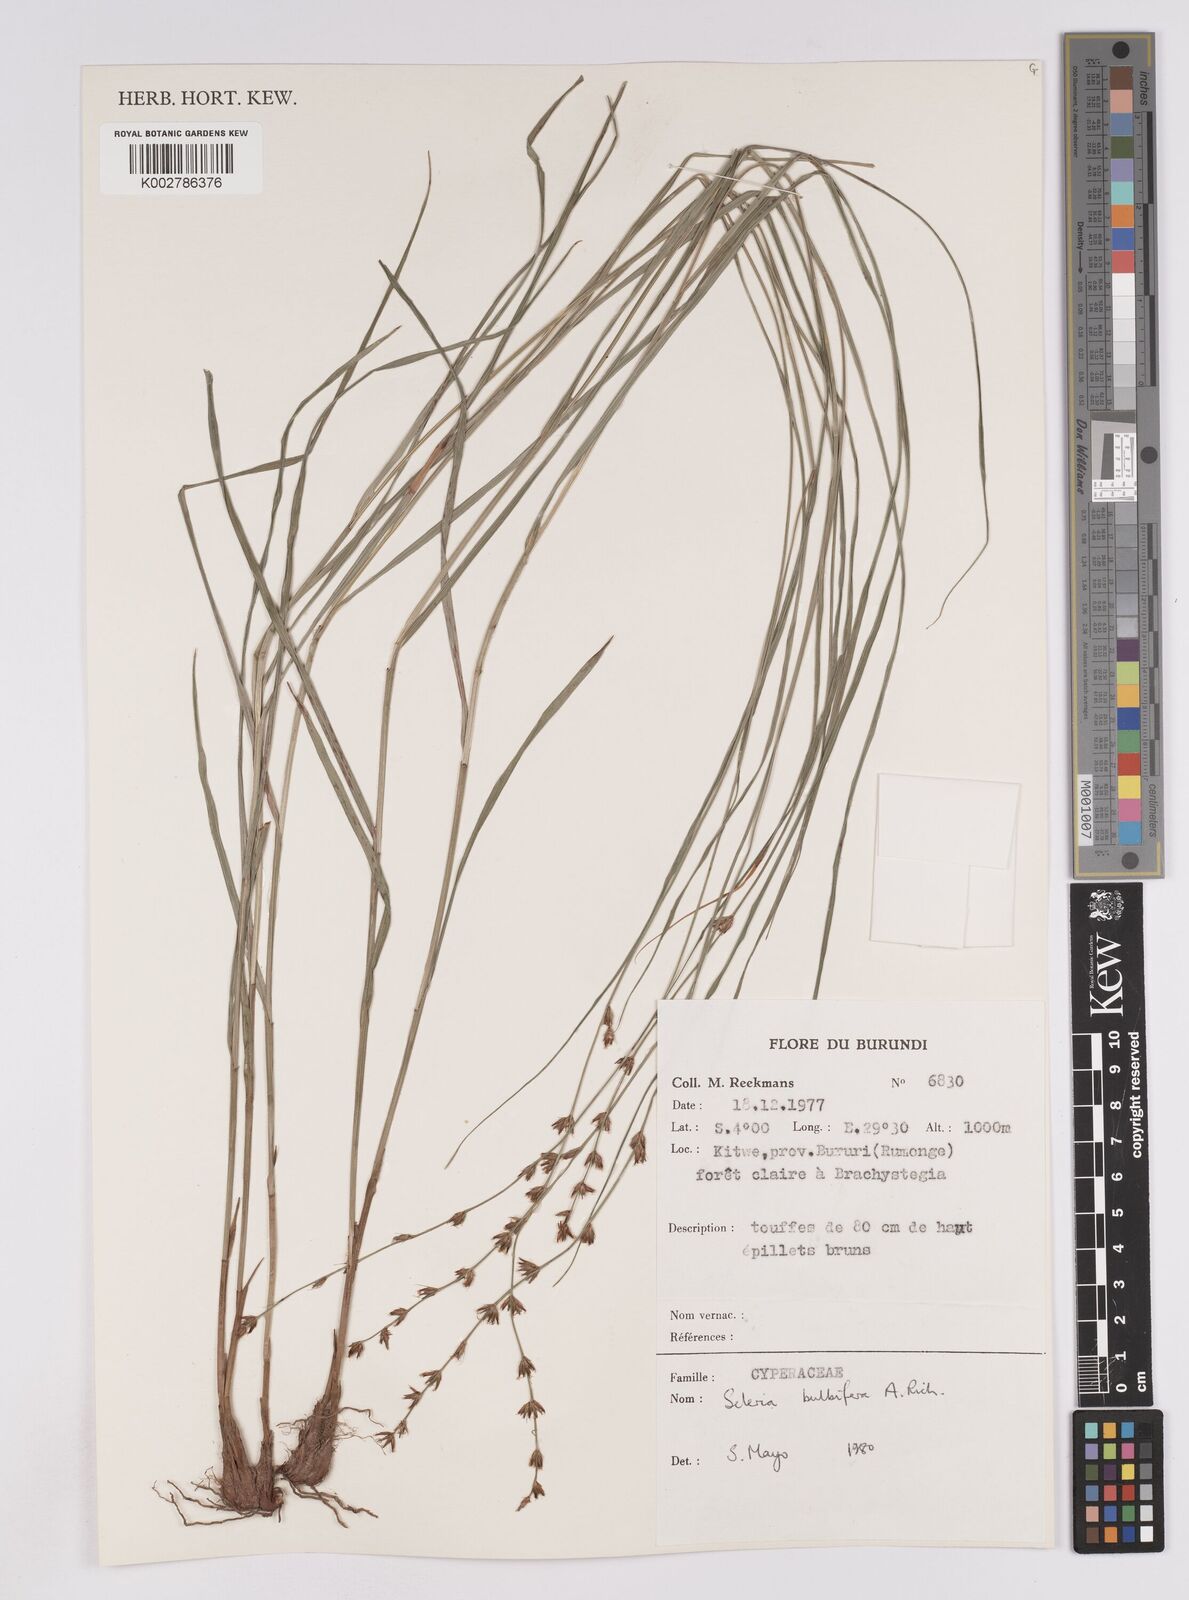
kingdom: Plantae
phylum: Tracheophyta
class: Liliopsida
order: Poales
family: Cyperaceae
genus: Scleria
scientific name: Scleria bulbifera
